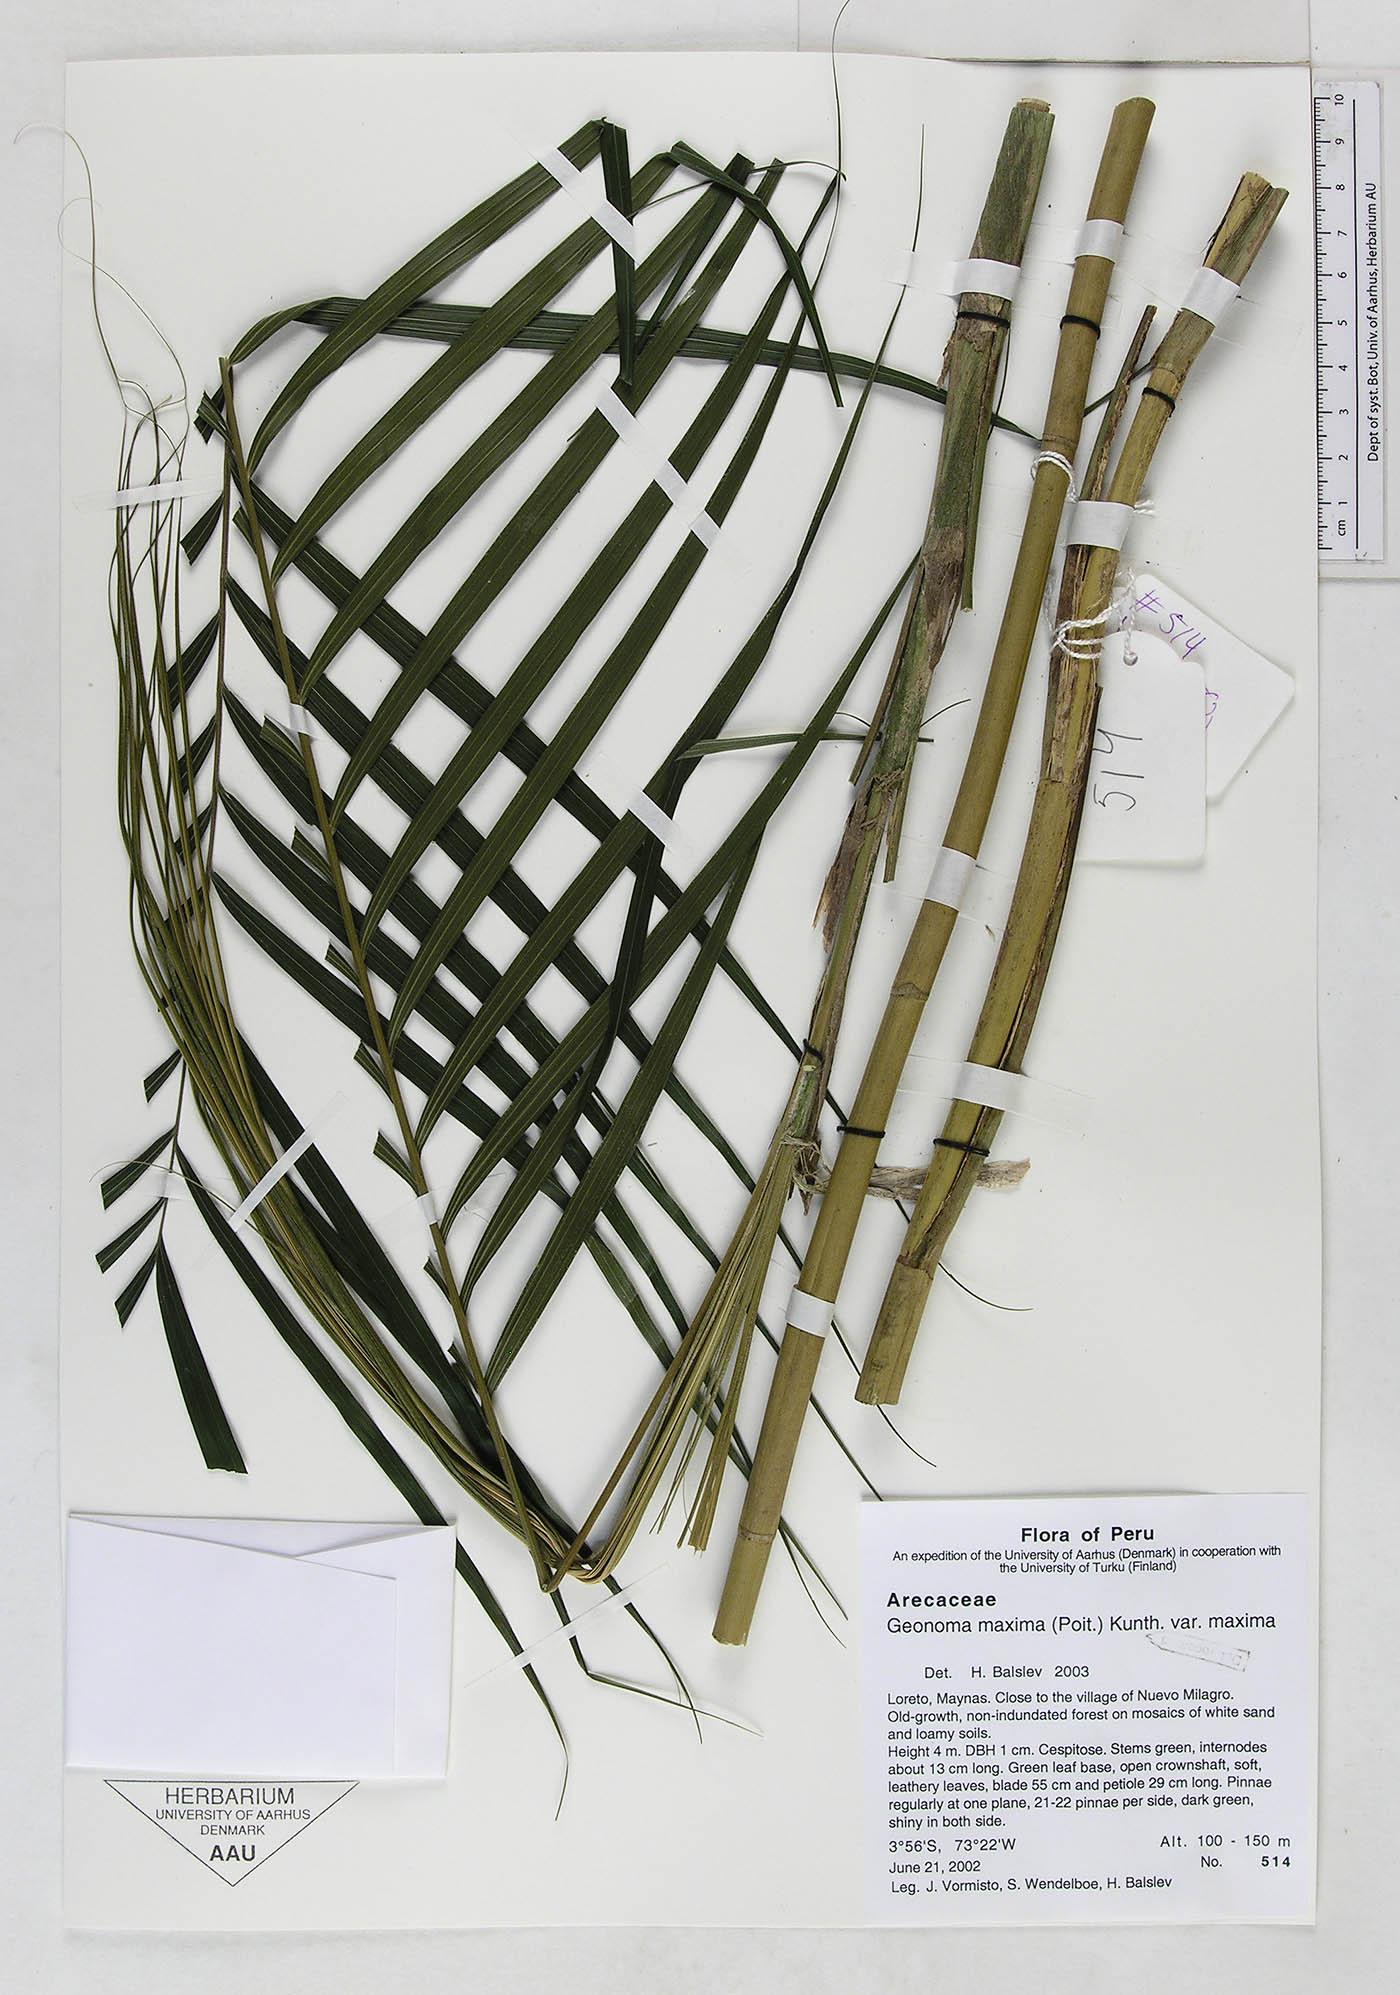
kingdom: Plantae
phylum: Tracheophyta
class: Liliopsida
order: Arecales
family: Arecaceae
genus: Geonoma
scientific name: Geonoma maxima
